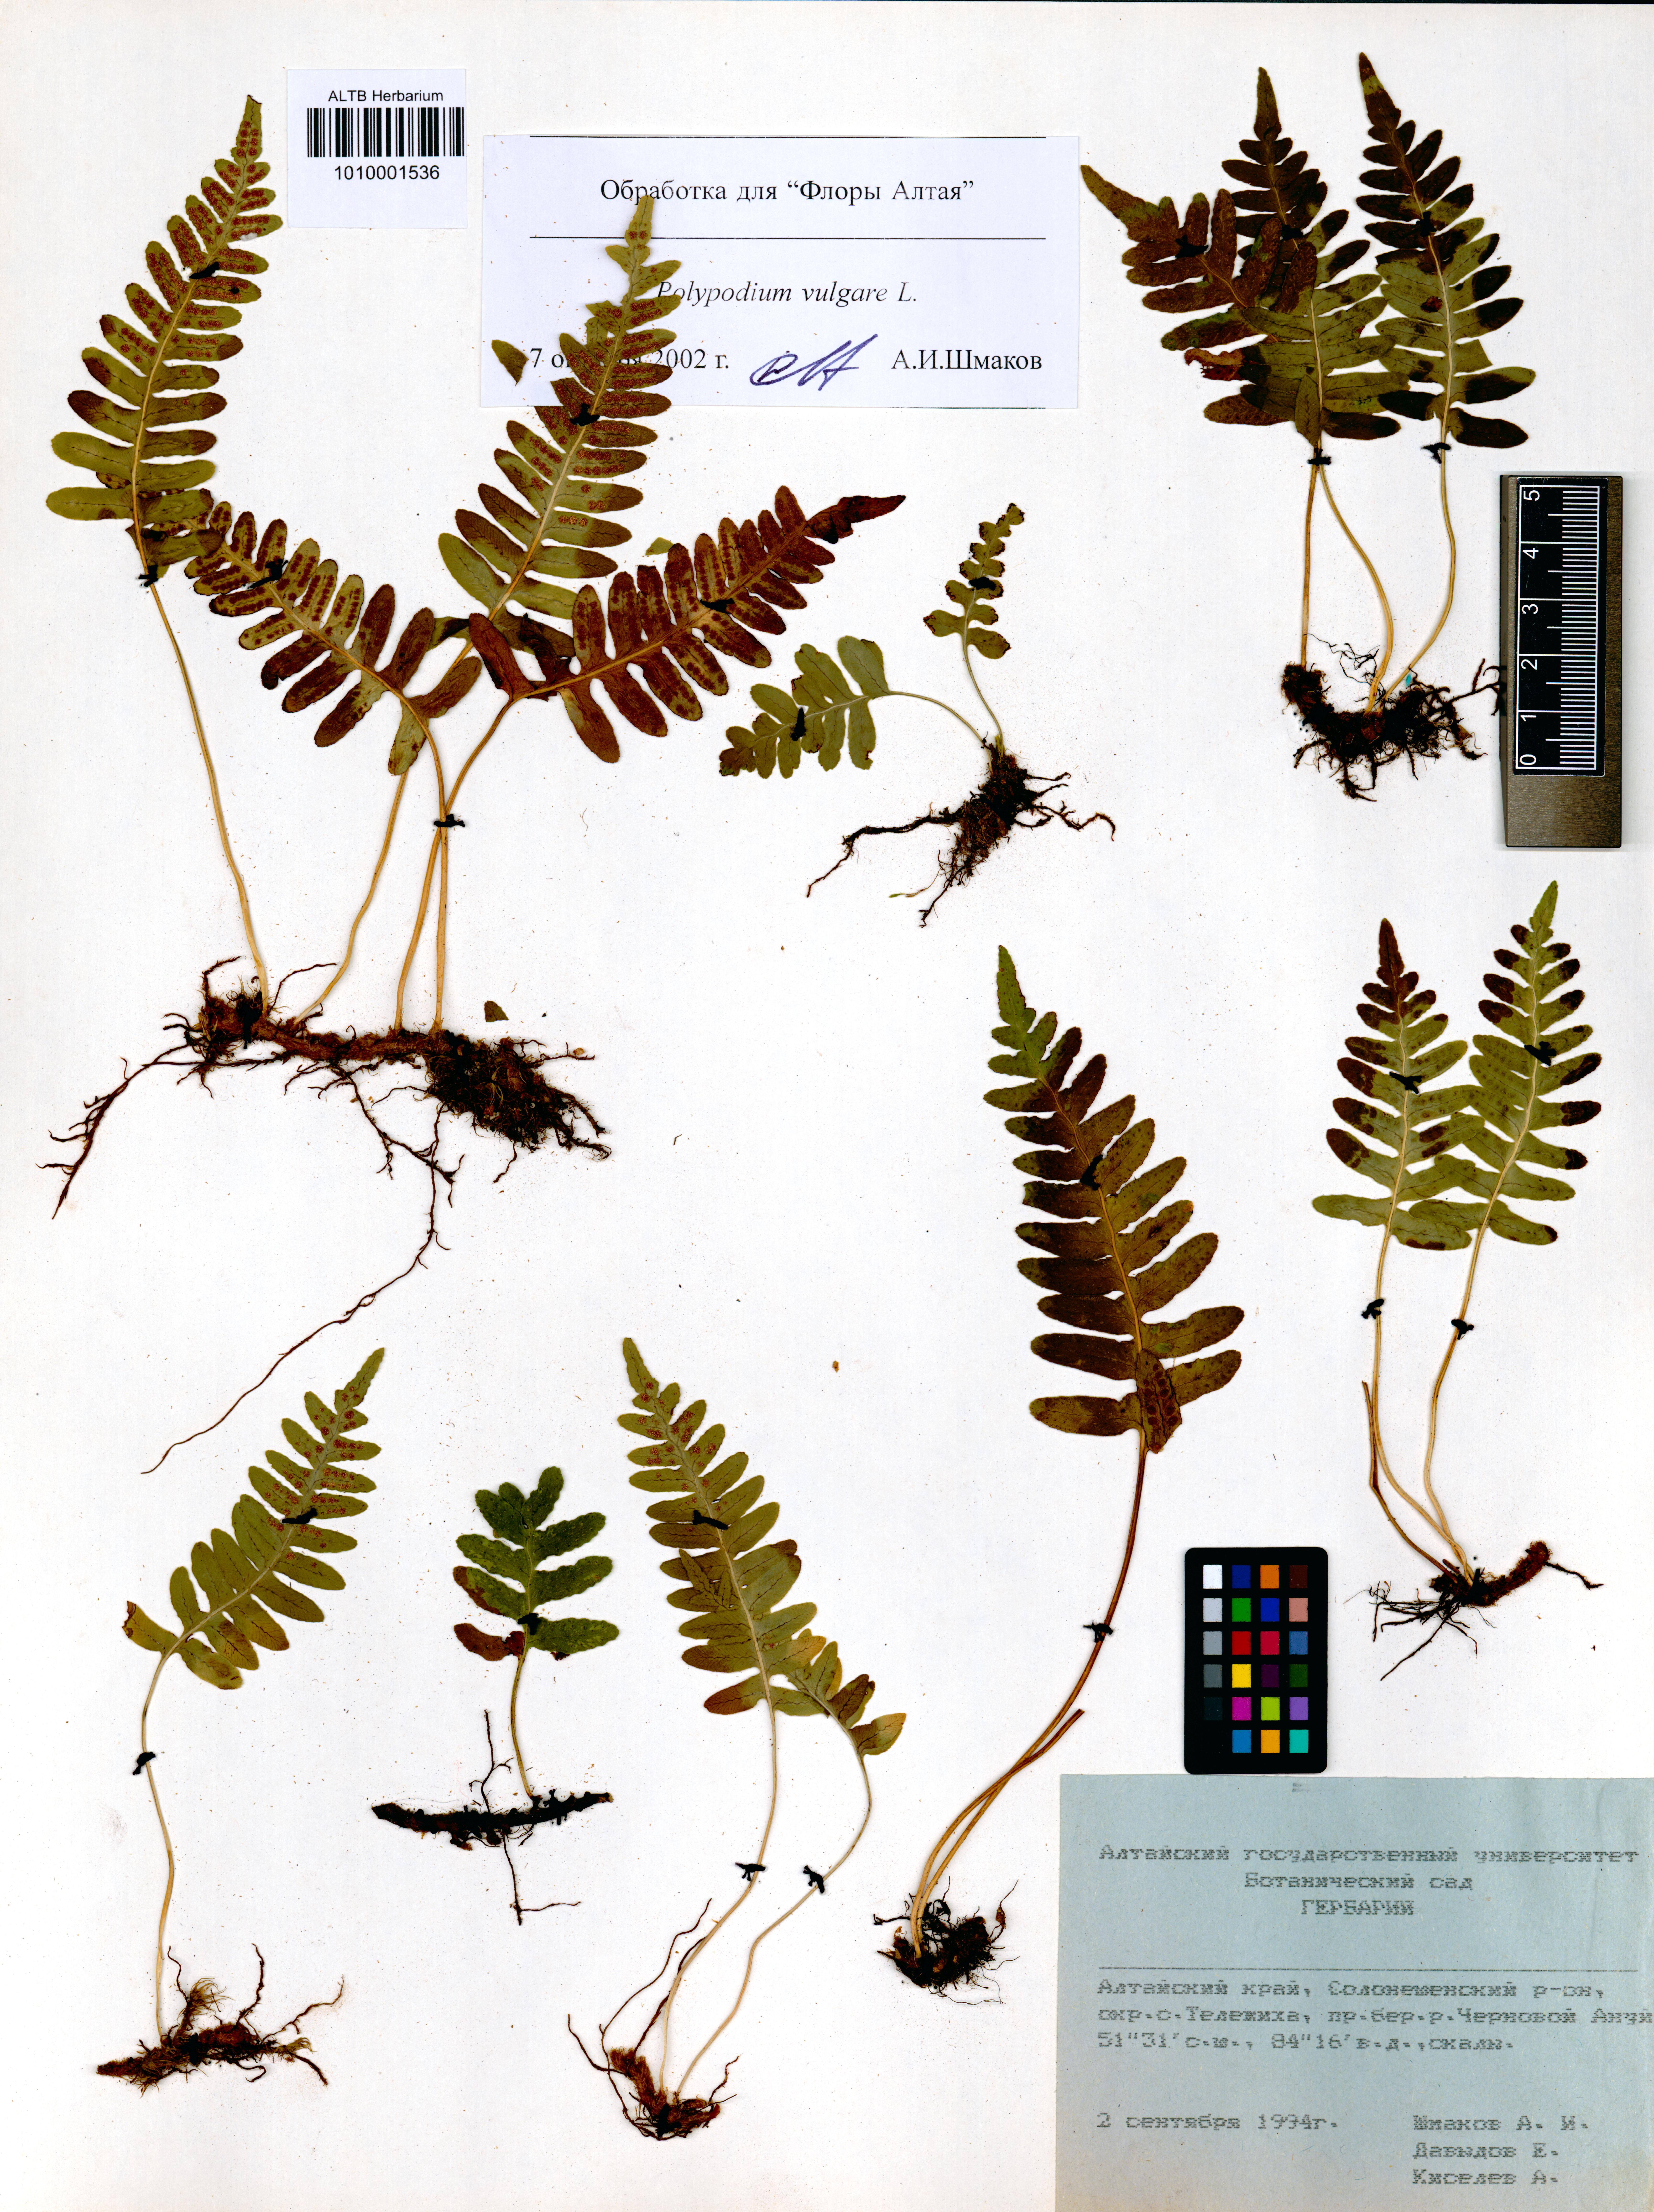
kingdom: Plantae
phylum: Tracheophyta
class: Polypodiopsida
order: Polypodiales
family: Polypodiaceae
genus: Polypodium
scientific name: Polypodium vulgare
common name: Common polypody
